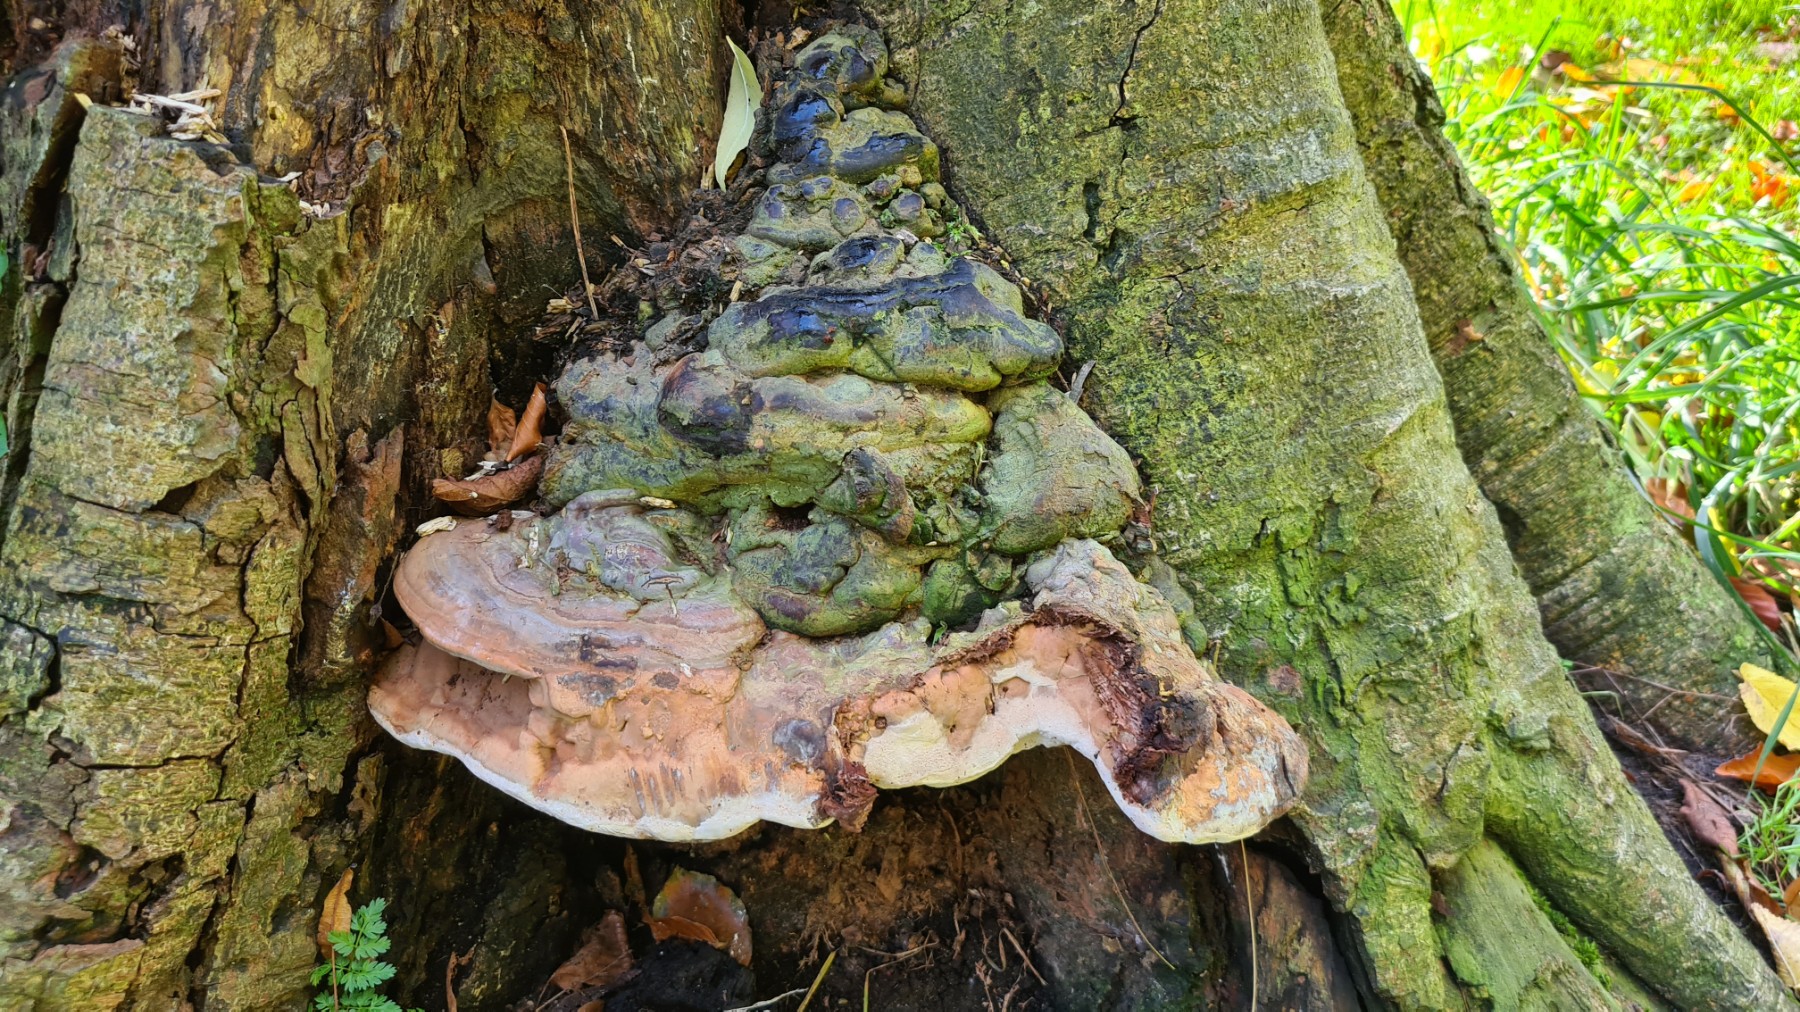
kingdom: Fungi
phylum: Basidiomycota
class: Agaricomycetes
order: Polyporales
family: Polyporaceae
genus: Ganoderma
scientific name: Ganoderma pfeifferi
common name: kobberrød lakporesvamp
